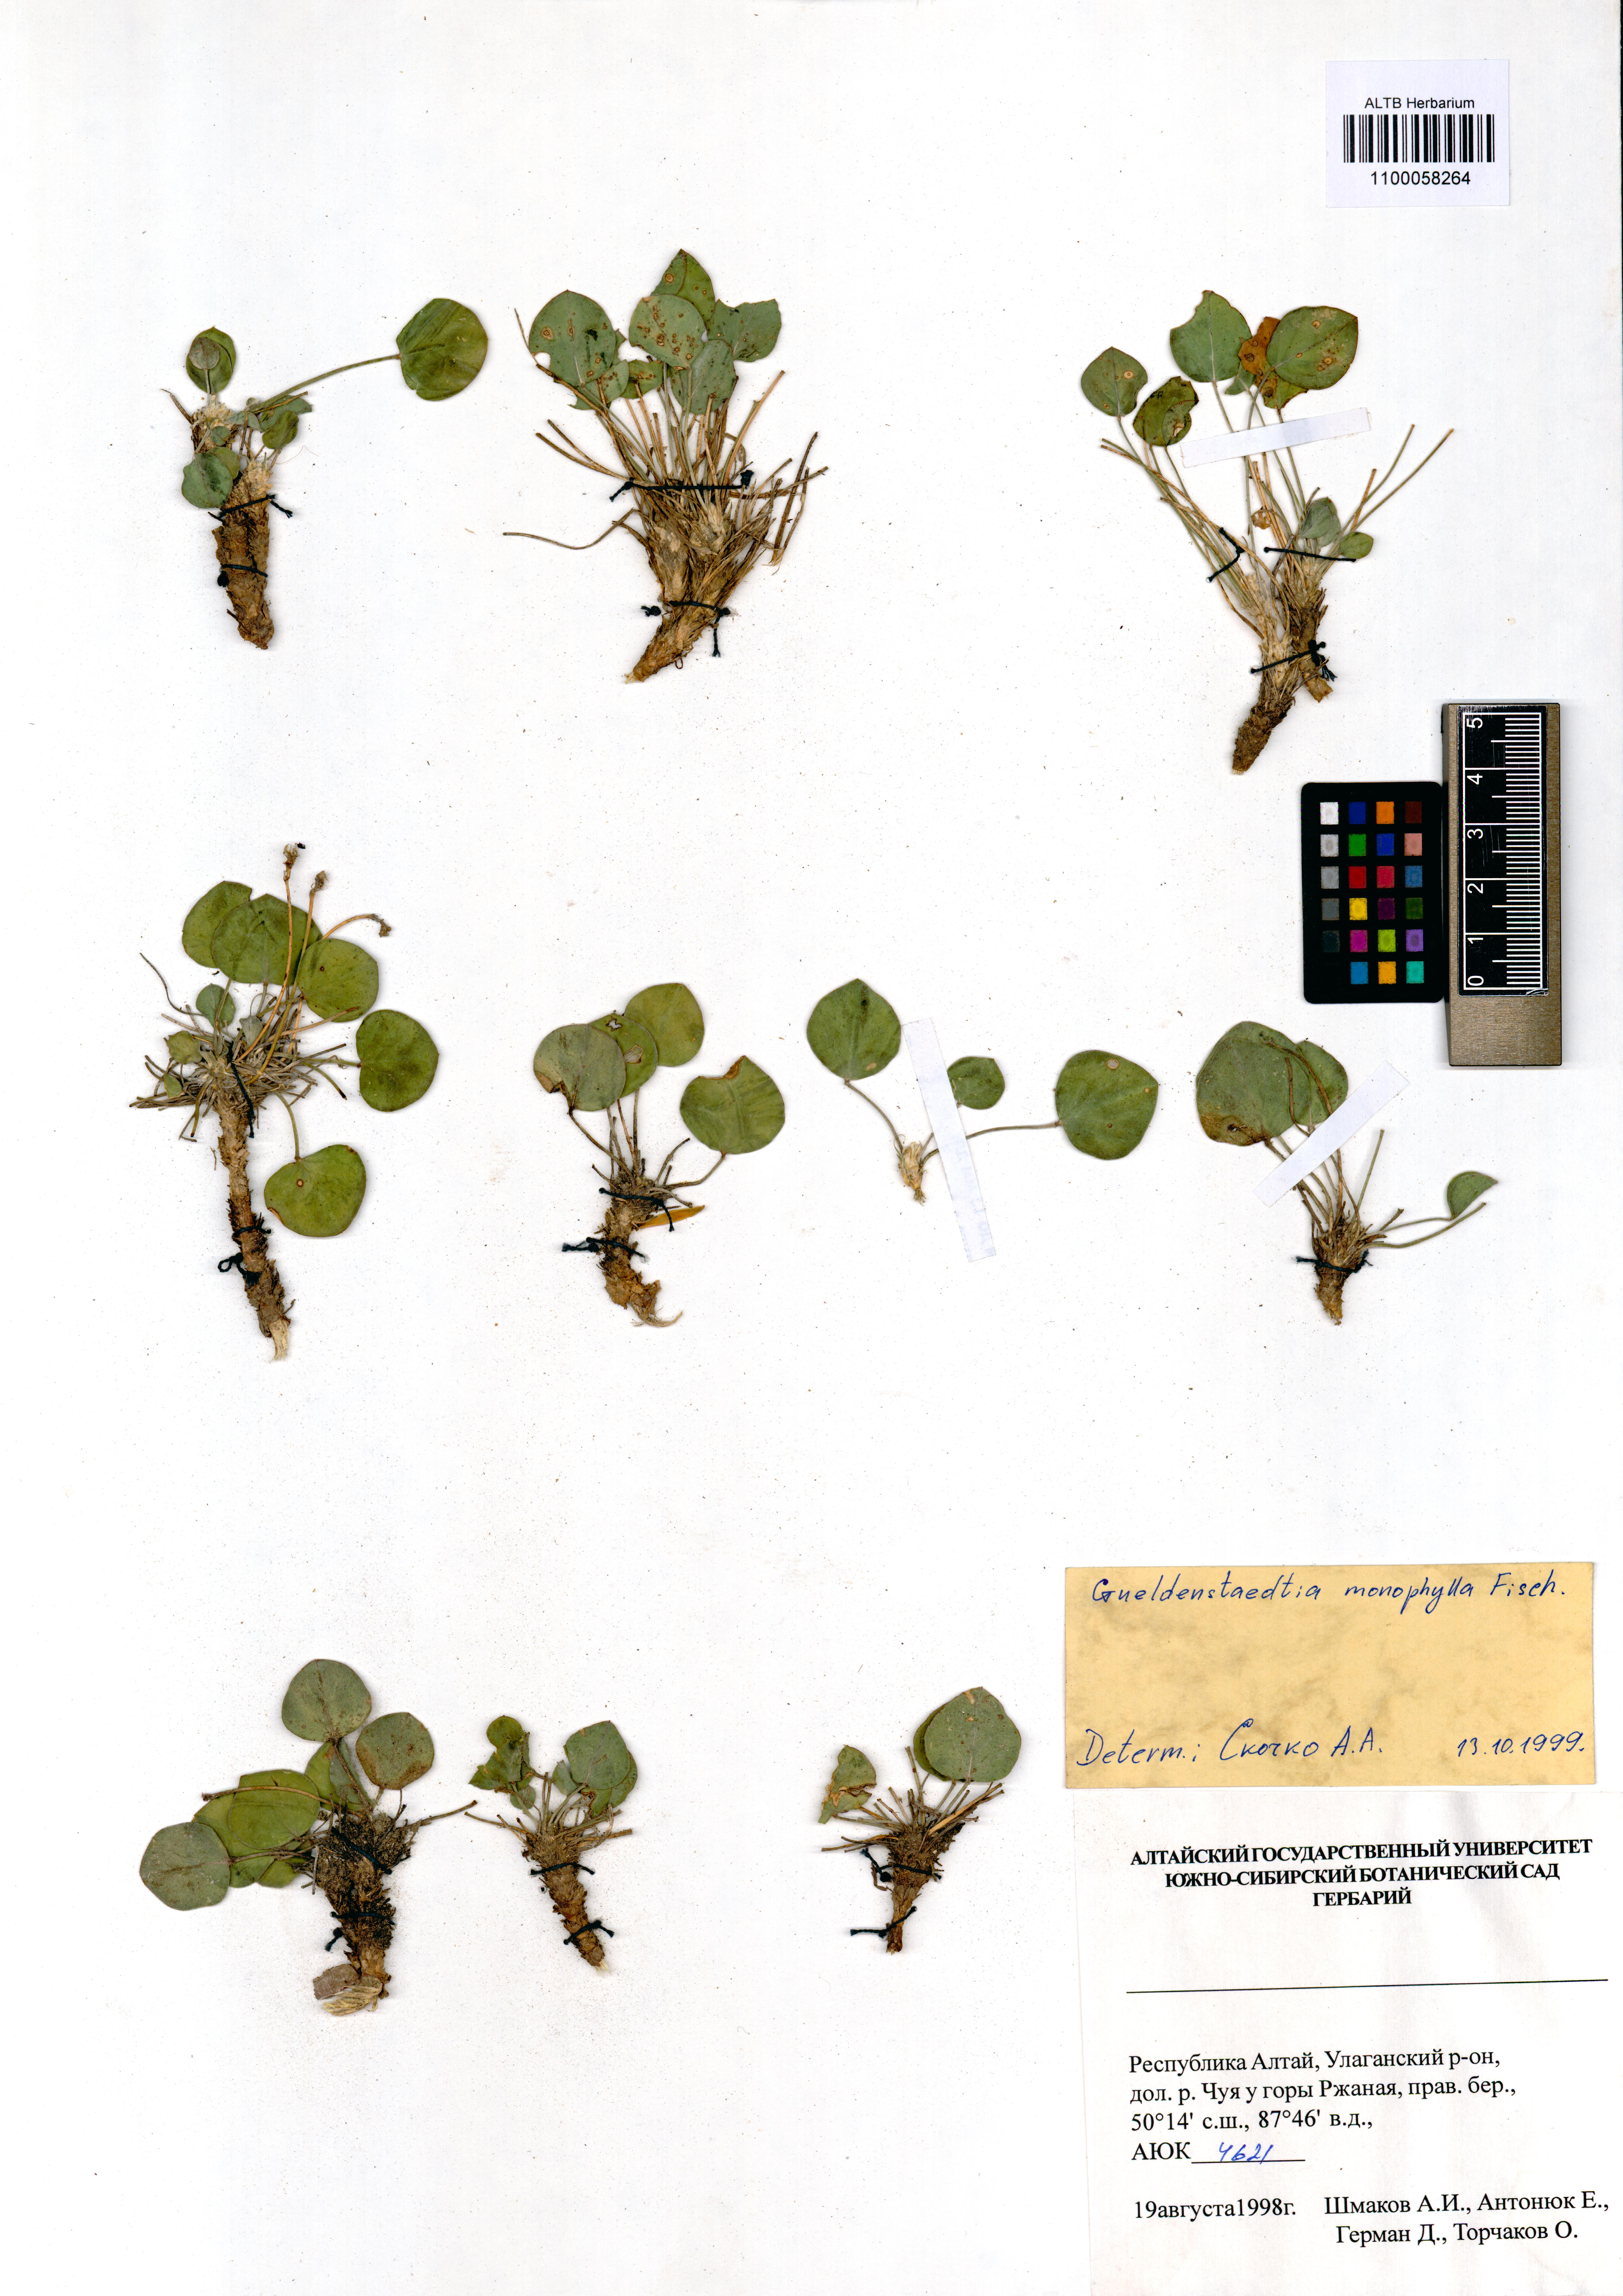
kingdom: Plantae
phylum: Tracheophyta
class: Magnoliopsida
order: Fabales
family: Fabaceae
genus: Gueldenstaedtia
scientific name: Gueldenstaedtia monophylla
